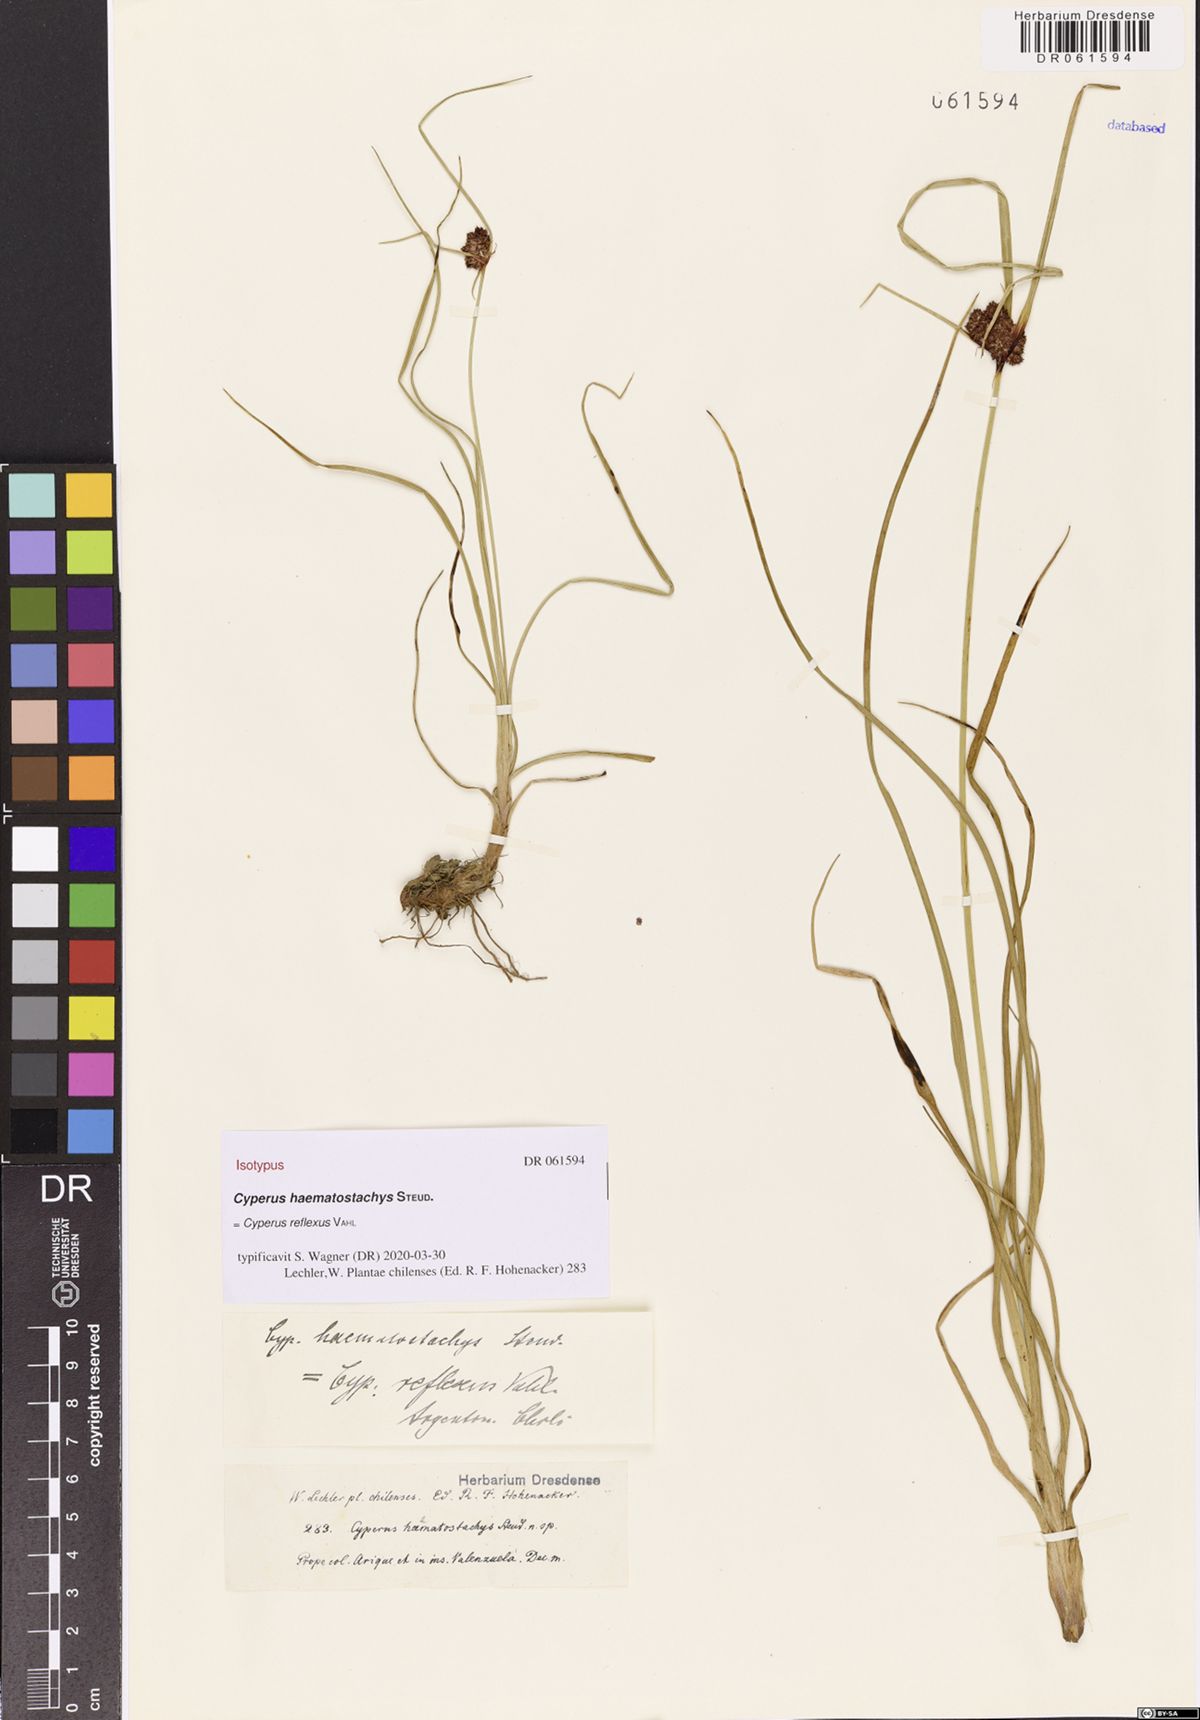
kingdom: Plantae
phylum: Tracheophyta
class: Liliopsida
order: Poales
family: Cyperaceae
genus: Cyperus
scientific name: Cyperus reflexus
